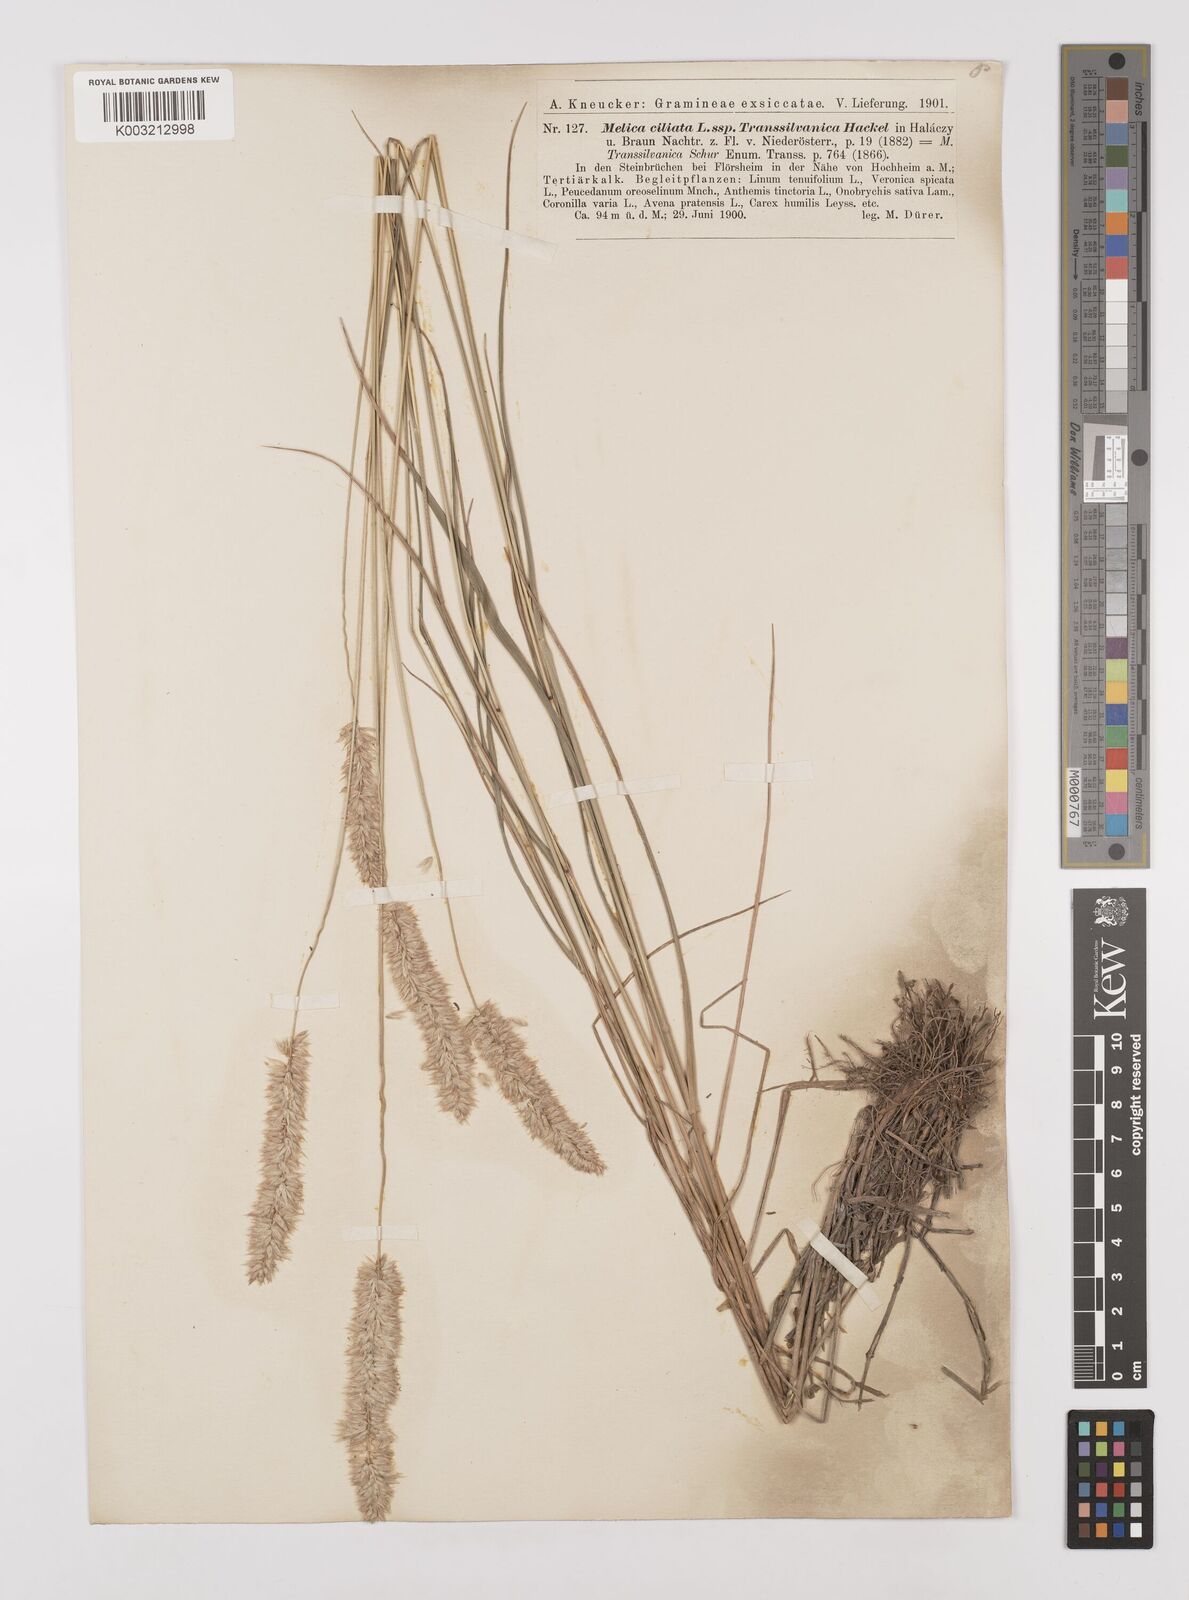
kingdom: Plantae
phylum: Tracheophyta
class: Liliopsida
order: Poales
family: Poaceae
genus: Melica
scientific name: Melica transsilvanica
